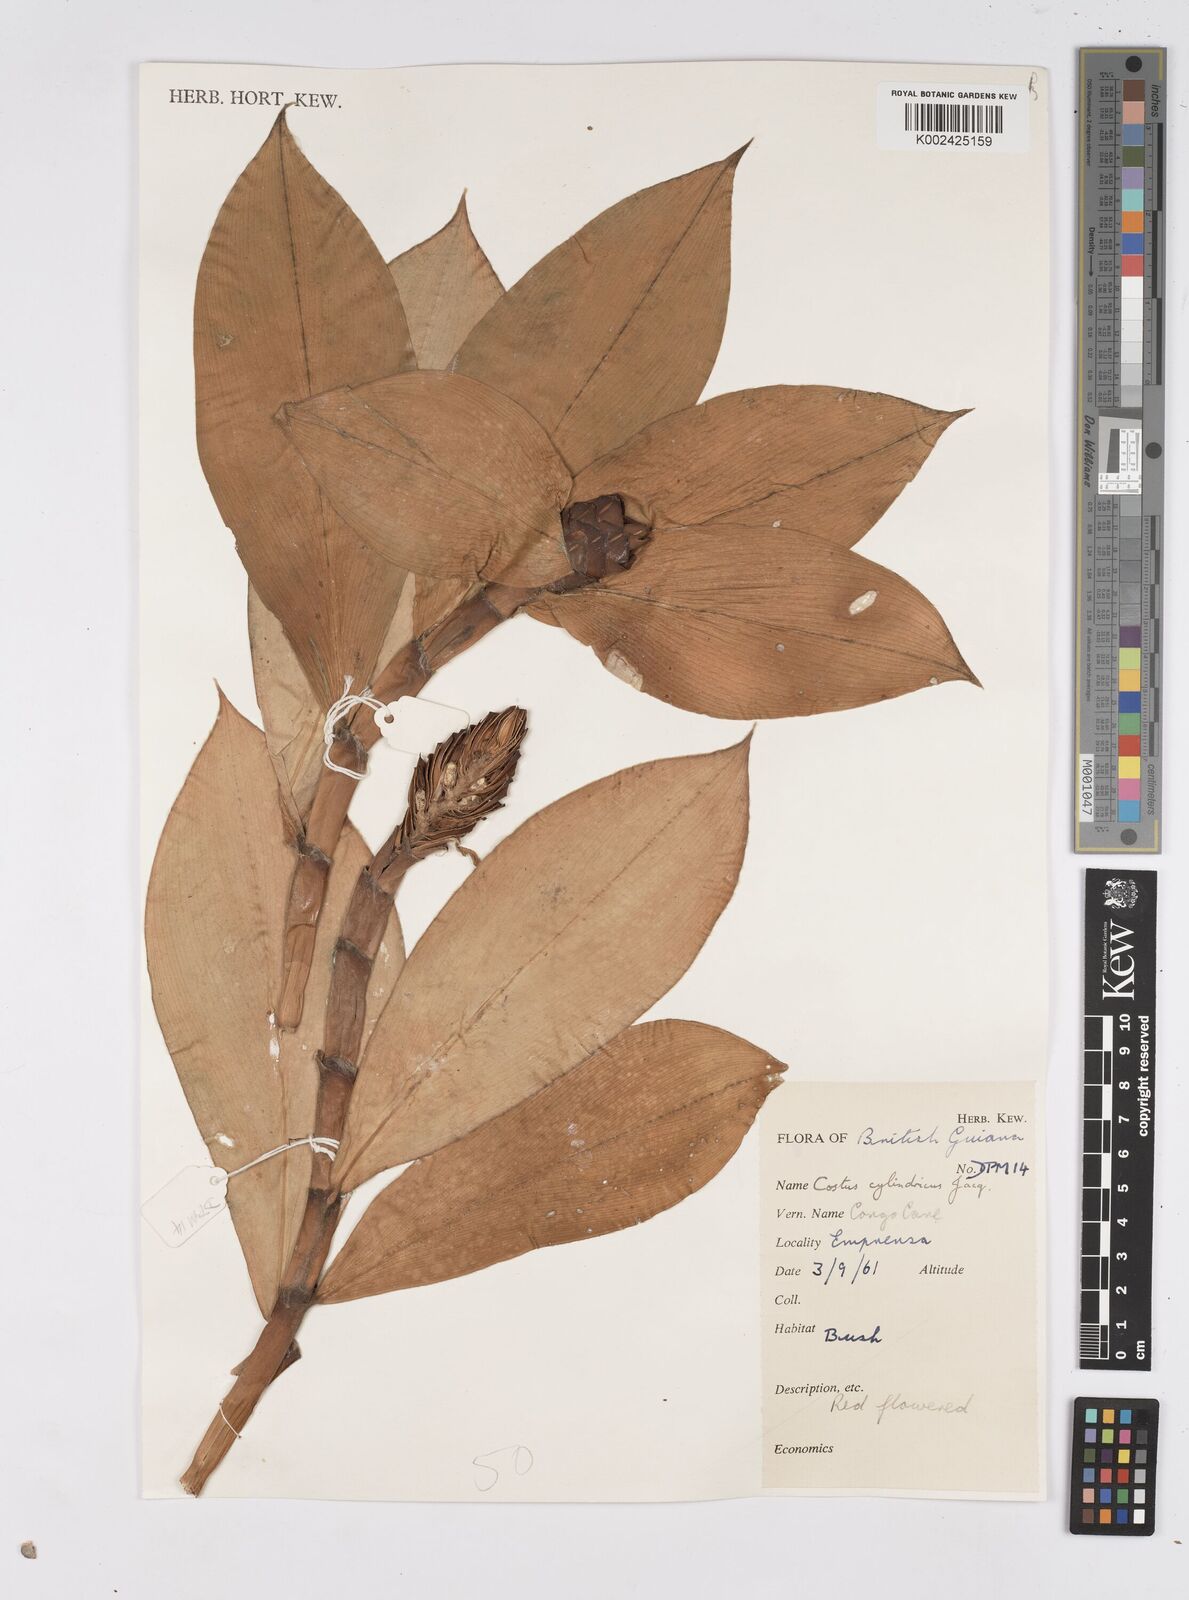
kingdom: Plantae
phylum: Tracheophyta
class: Liliopsida
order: Zingiberales
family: Costaceae
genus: Costus
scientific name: Costus scaber
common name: Spiral head ginger
